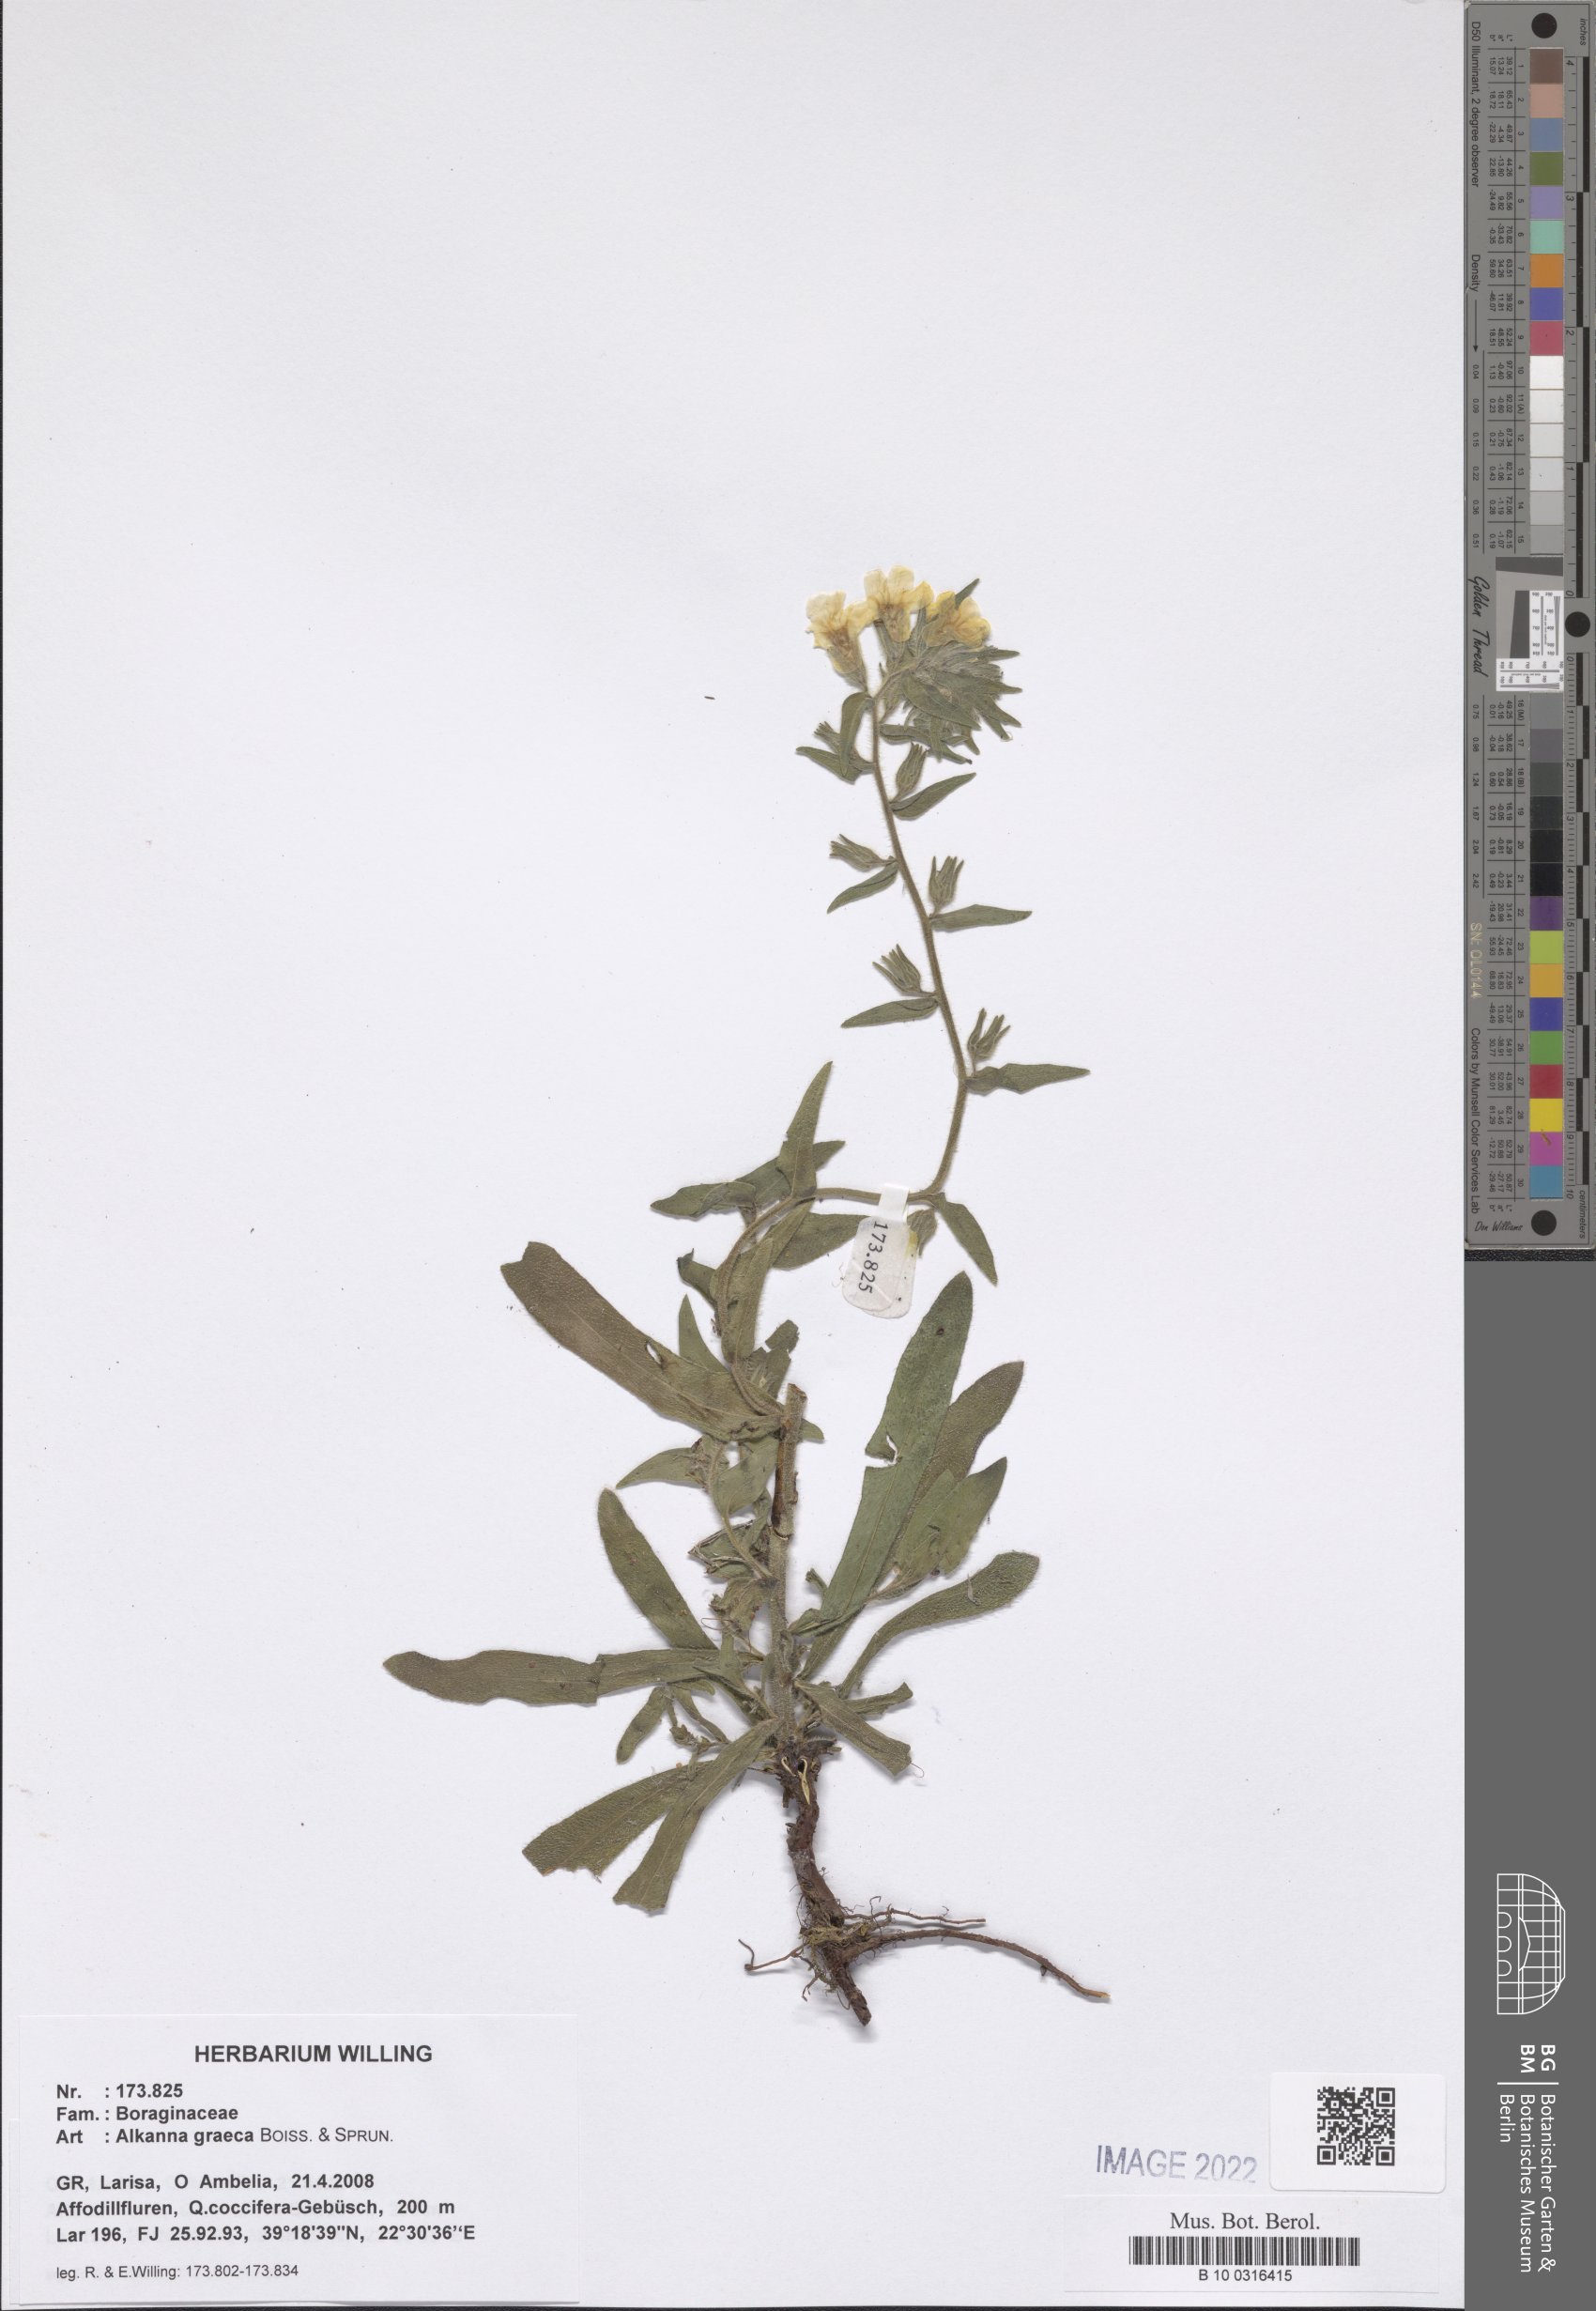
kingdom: Plantae
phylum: Tracheophyta
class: Magnoliopsida
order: Boraginales
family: Boraginaceae
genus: Alkanna
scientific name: Alkanna graeca
